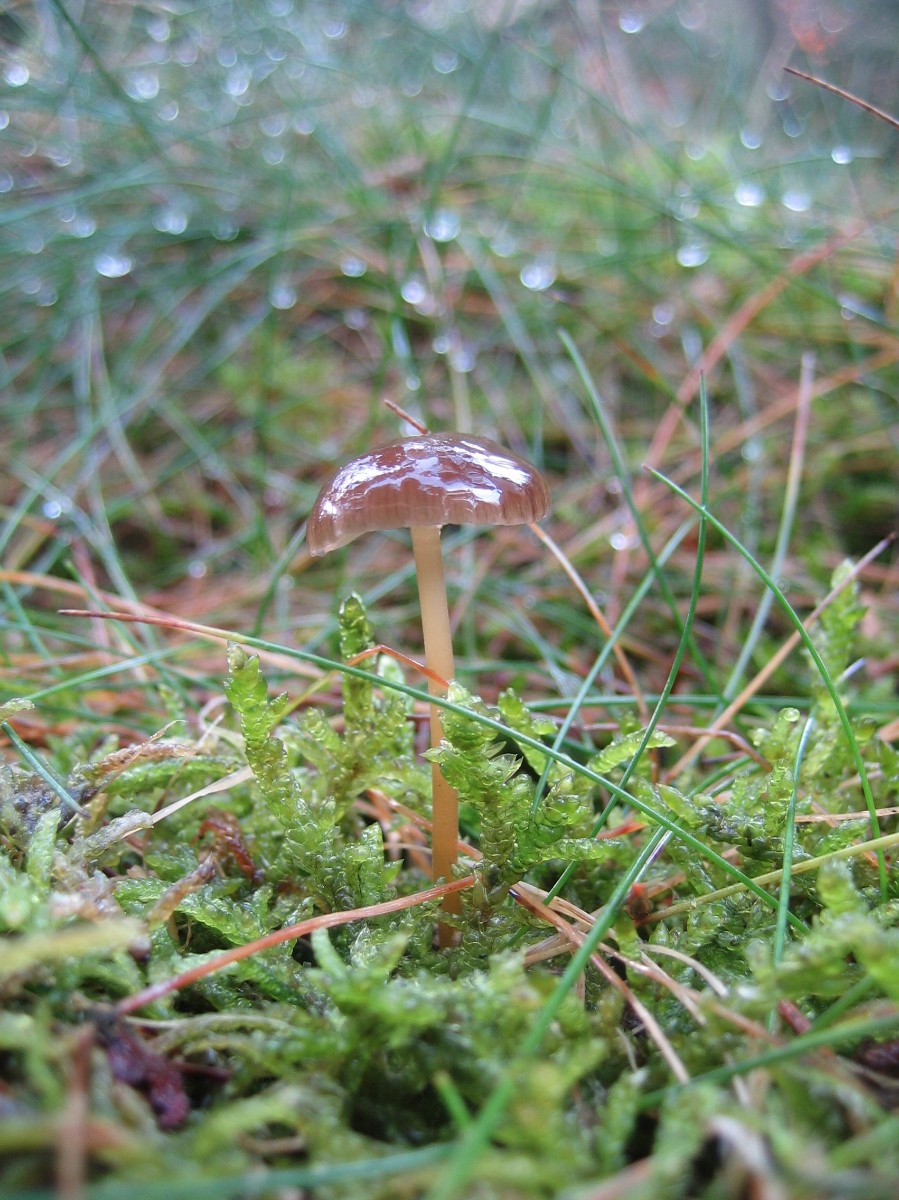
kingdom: Fungi
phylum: Basidiomycota
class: Agaricomycetes
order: Agaricales
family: Physalacriaceae
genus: Strobilurus
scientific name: Strobilurus esculentus
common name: gran-koglehat
